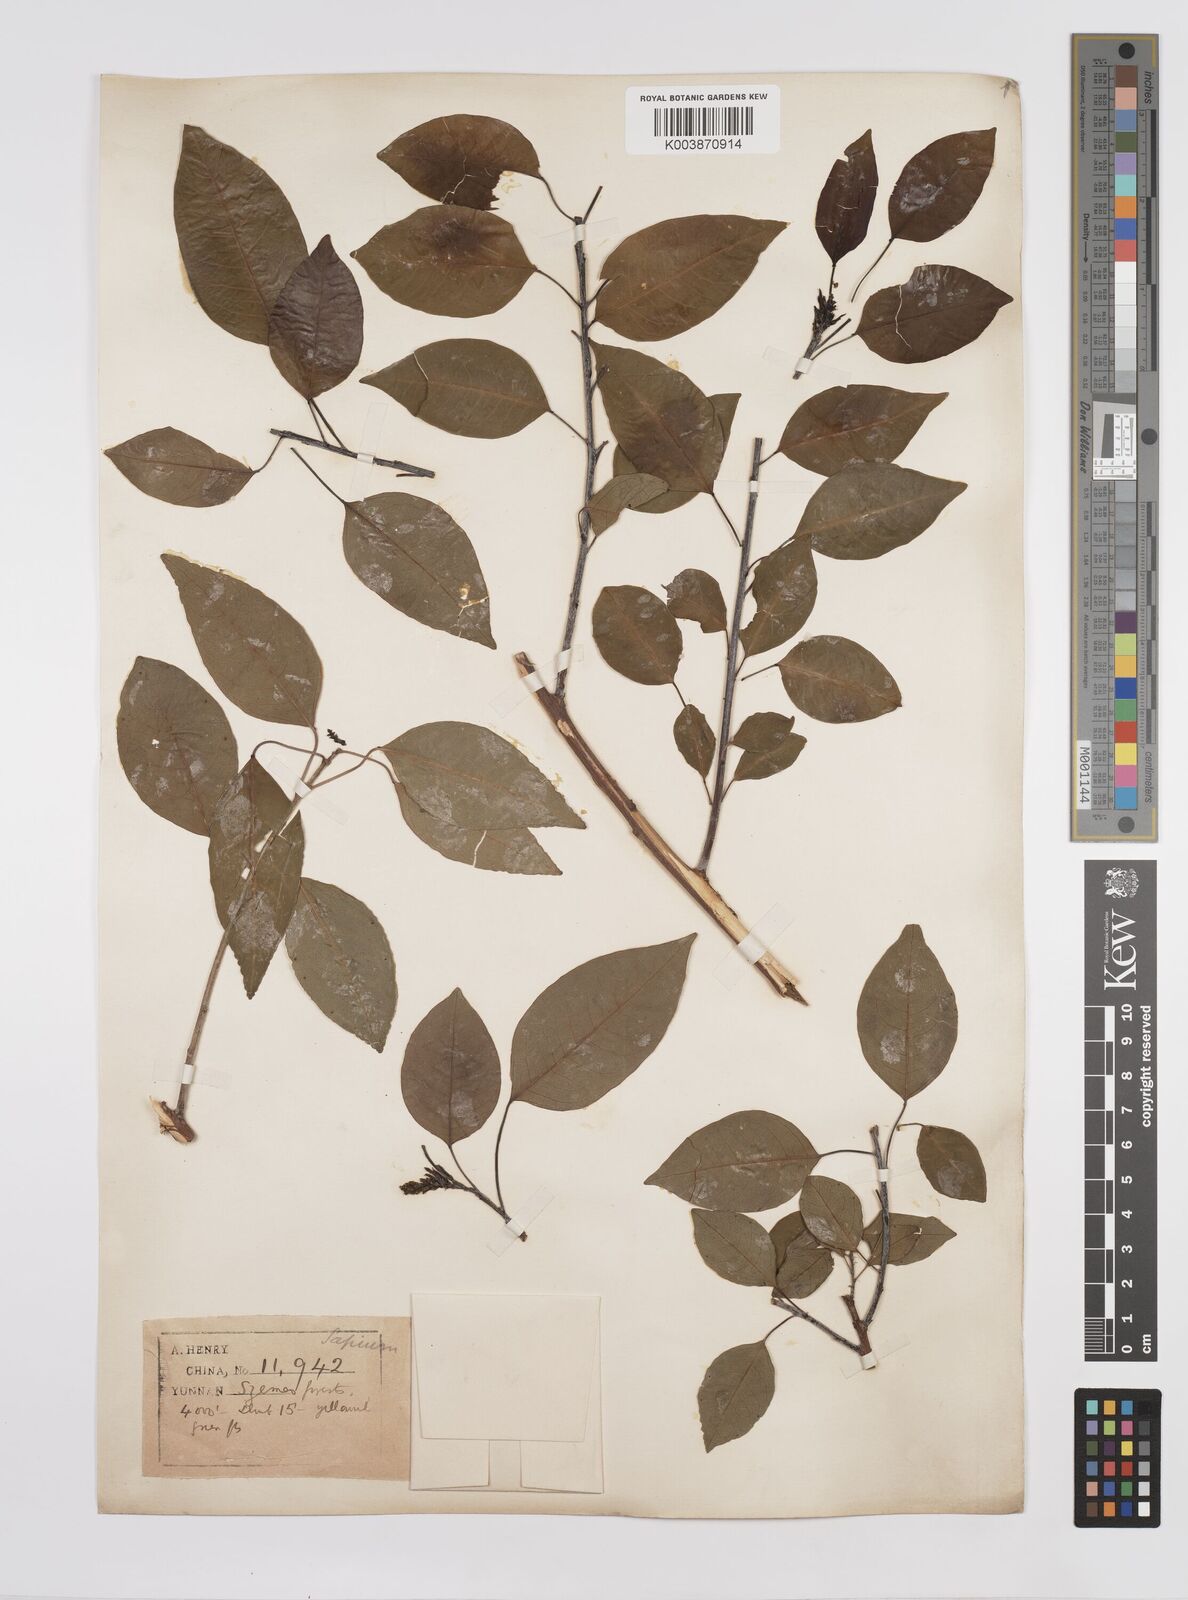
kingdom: Plantae
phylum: Tracheophyta
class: Magnoliopsida
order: Malpighiales
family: Euphorbiaceae
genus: Triadica
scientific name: Triadica cochinchinensis
